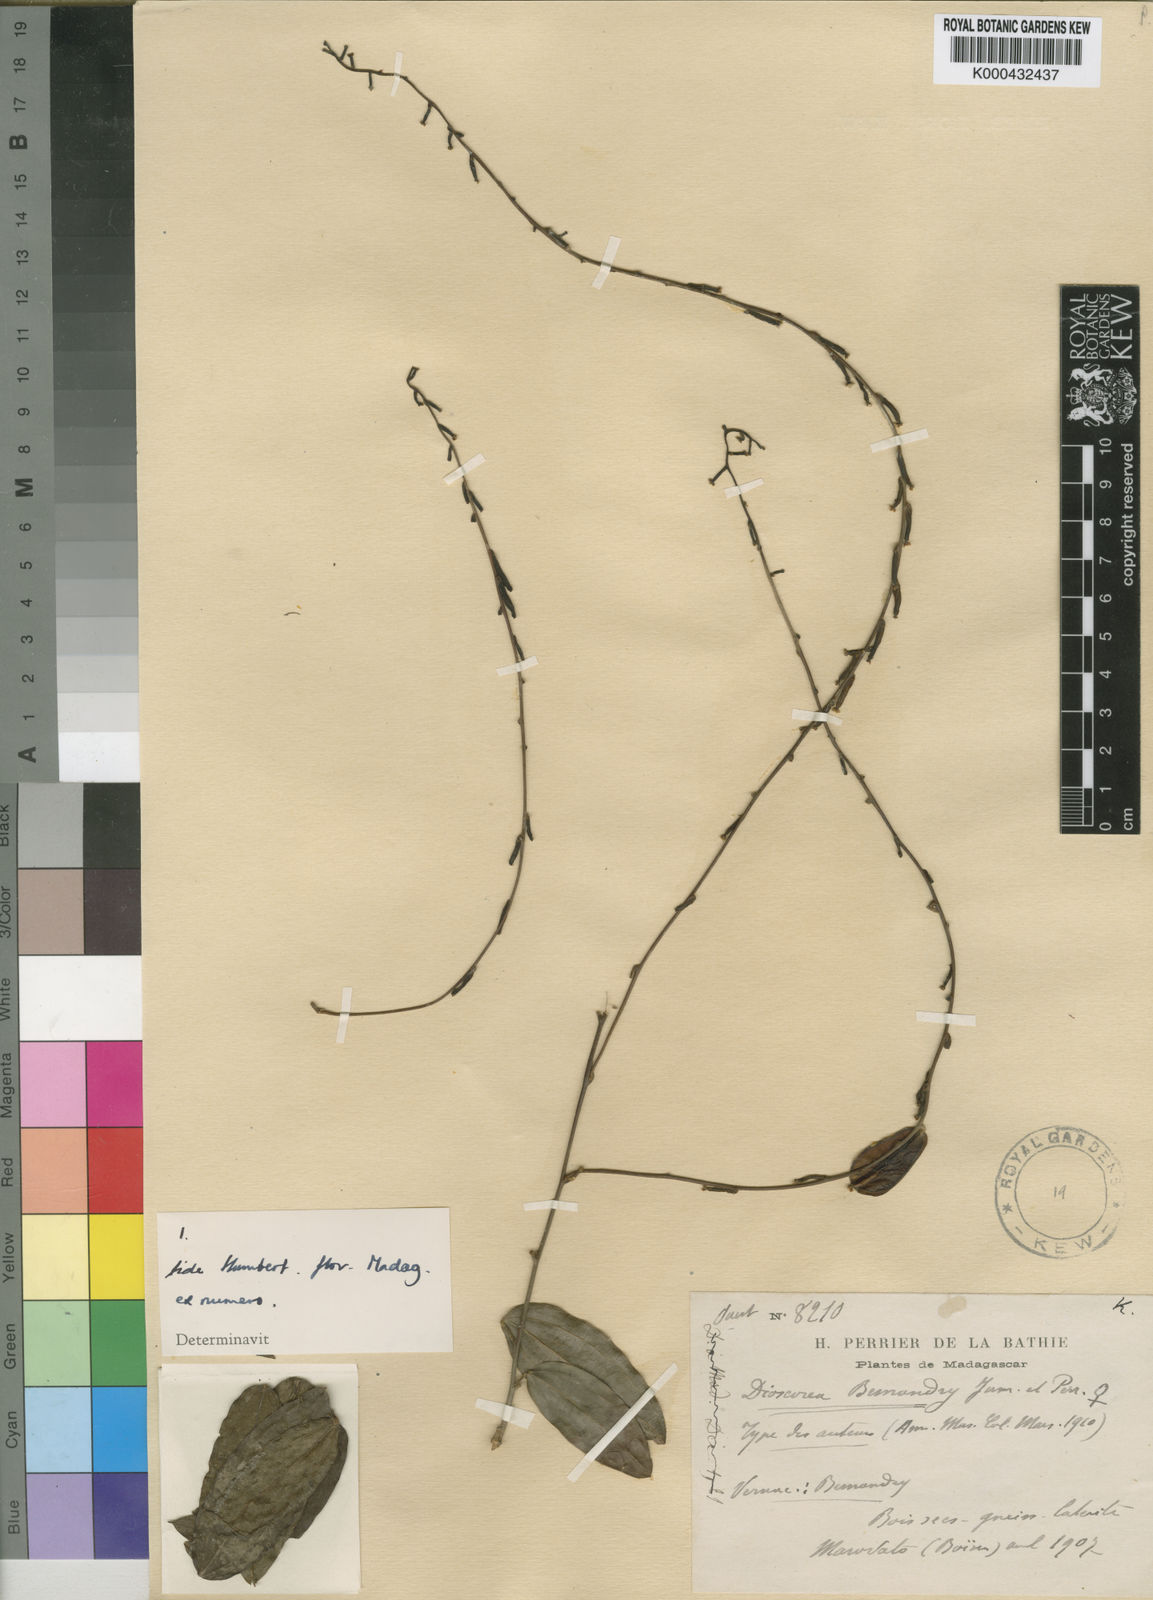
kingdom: Plantae
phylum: Tracheophyta
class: Liliopsida
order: Dioscoreales
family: Dioscoreaceae
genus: Dioscorea
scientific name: Dioscorea bemandry
